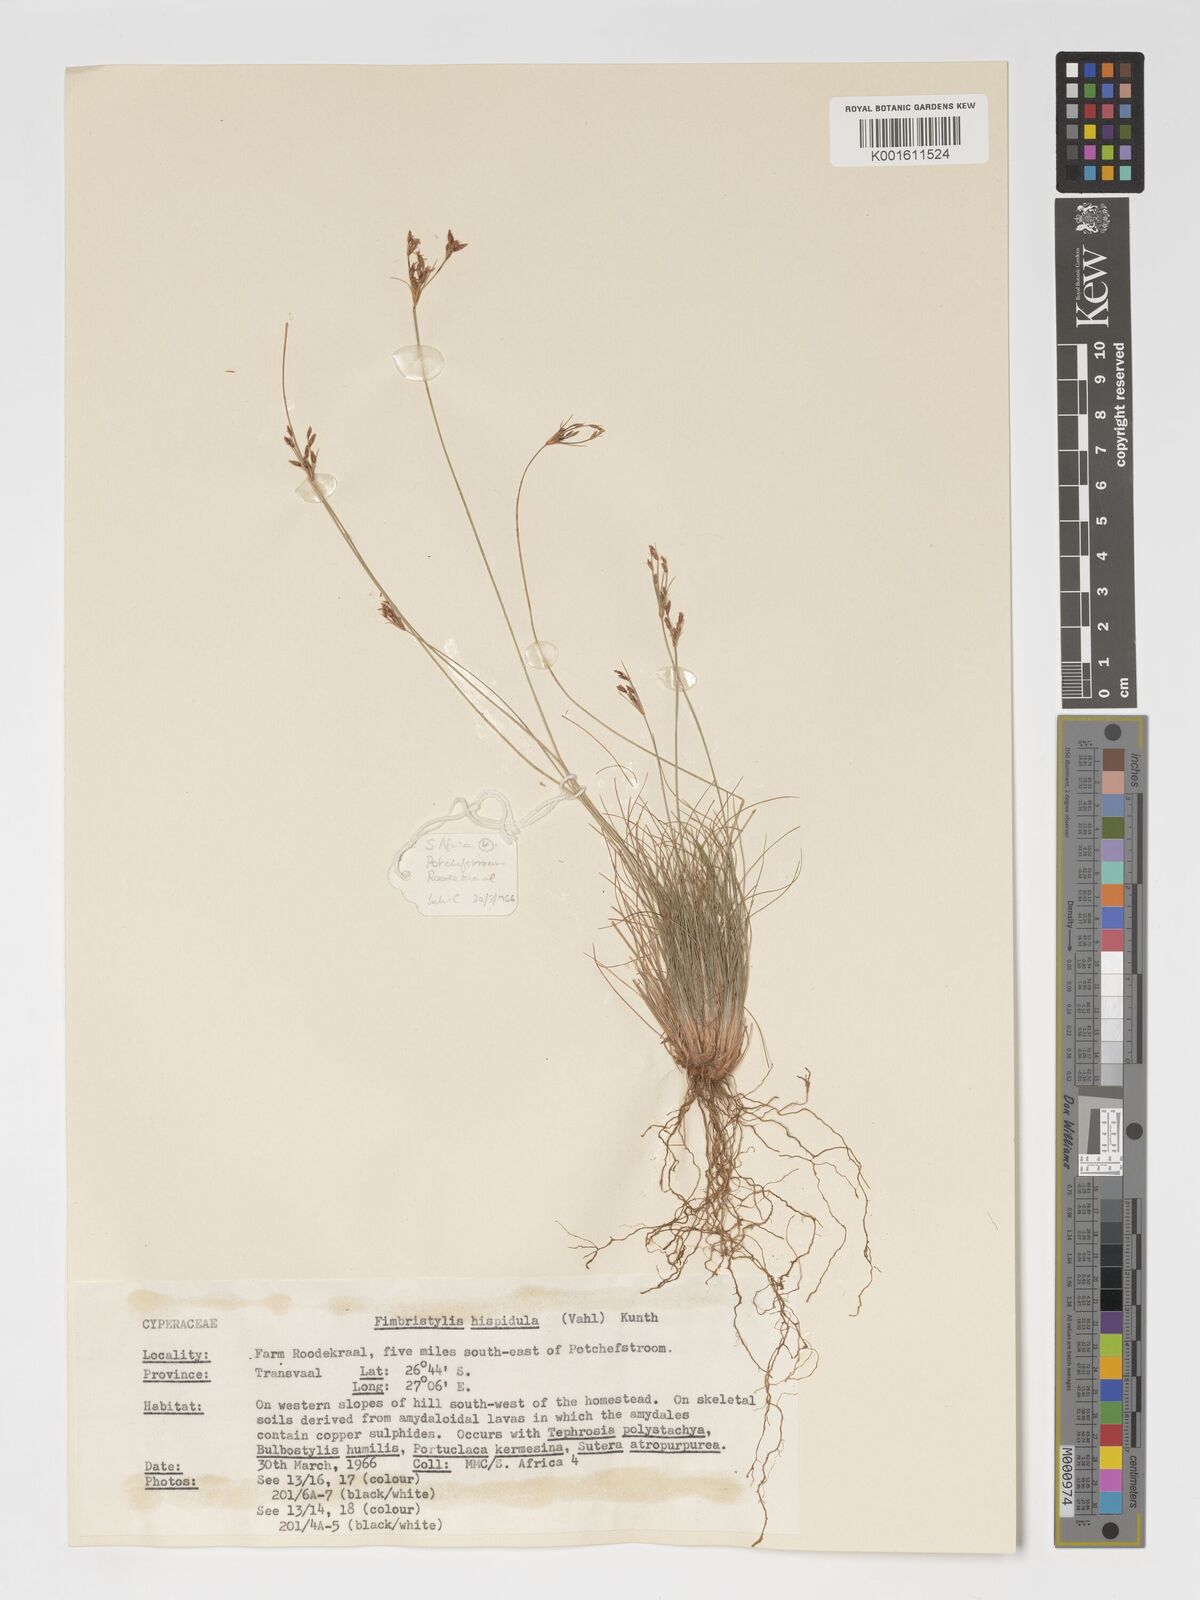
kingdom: Plantae
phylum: Tracheophyta
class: Liliopsida
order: Poales
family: Cyperaceae
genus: Bulbostylis
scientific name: Bulbostylis hispidula
